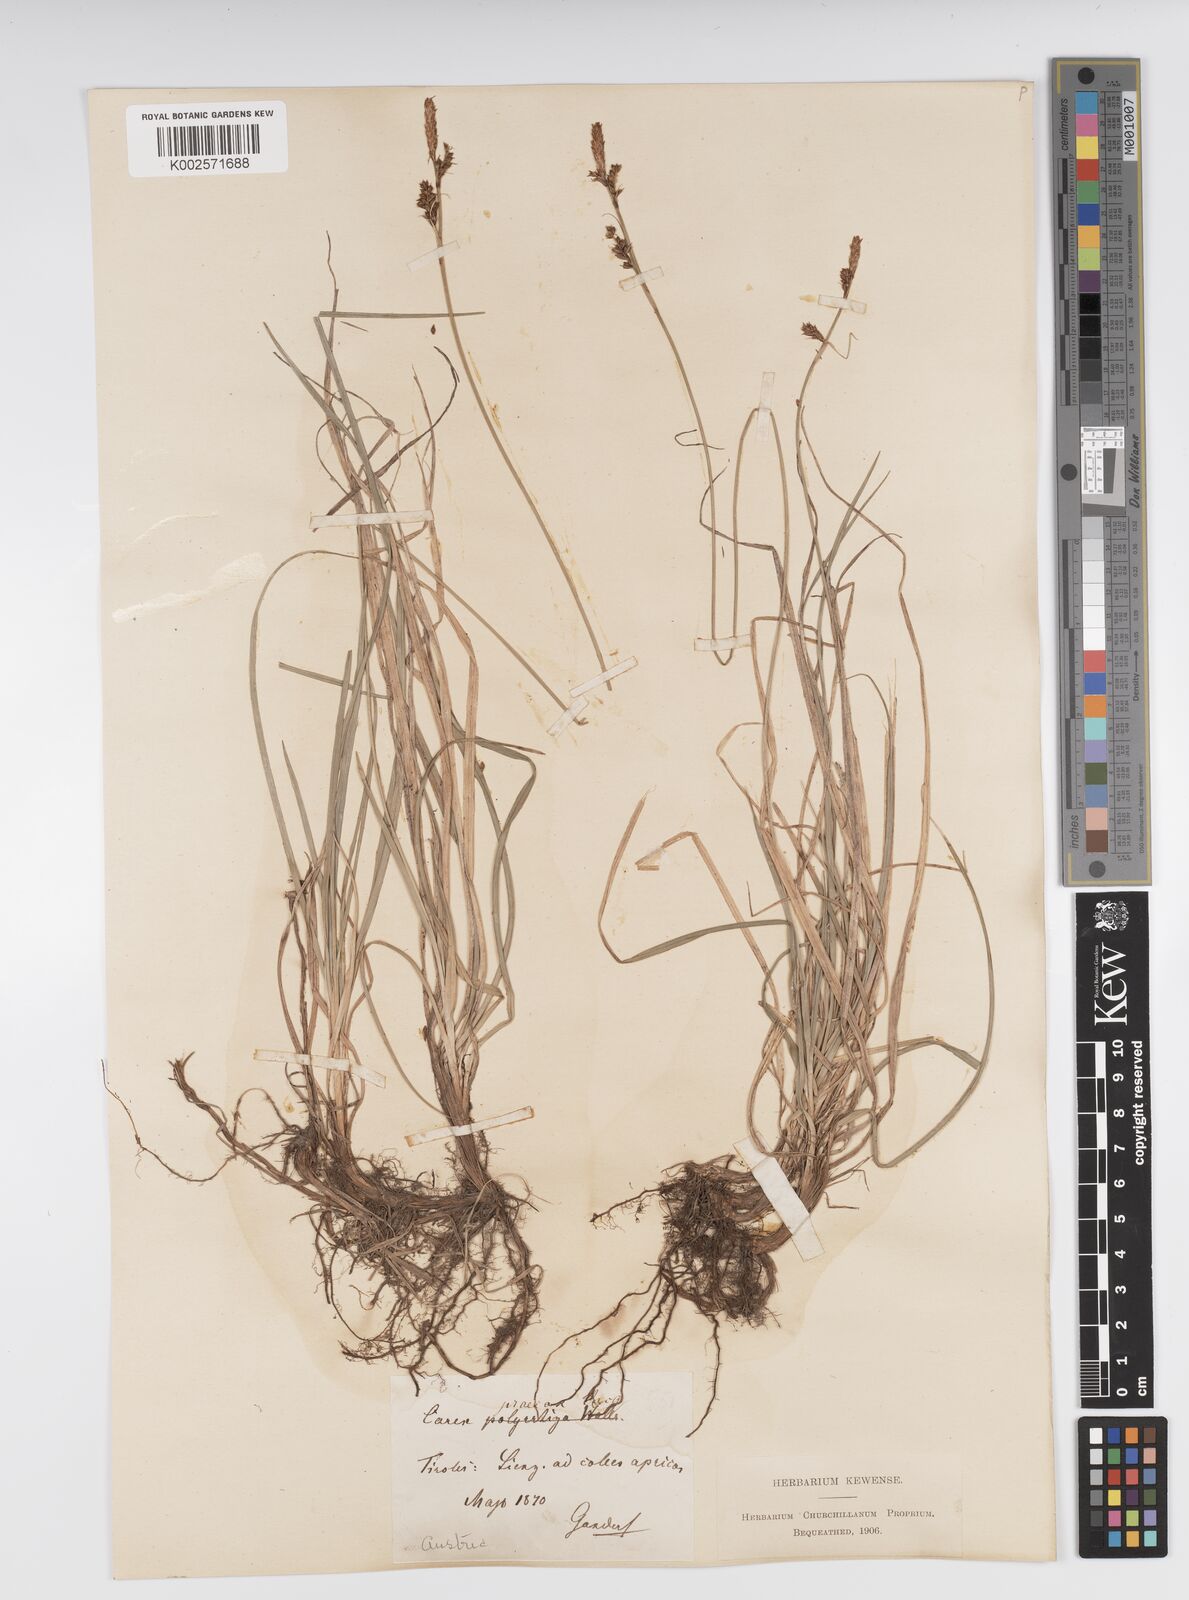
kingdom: Plantae
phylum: Tracheophyta
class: Liliopsida
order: Poales
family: Cyperaceae
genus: Carex
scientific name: Carex caryophyllea
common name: Spring sedge
